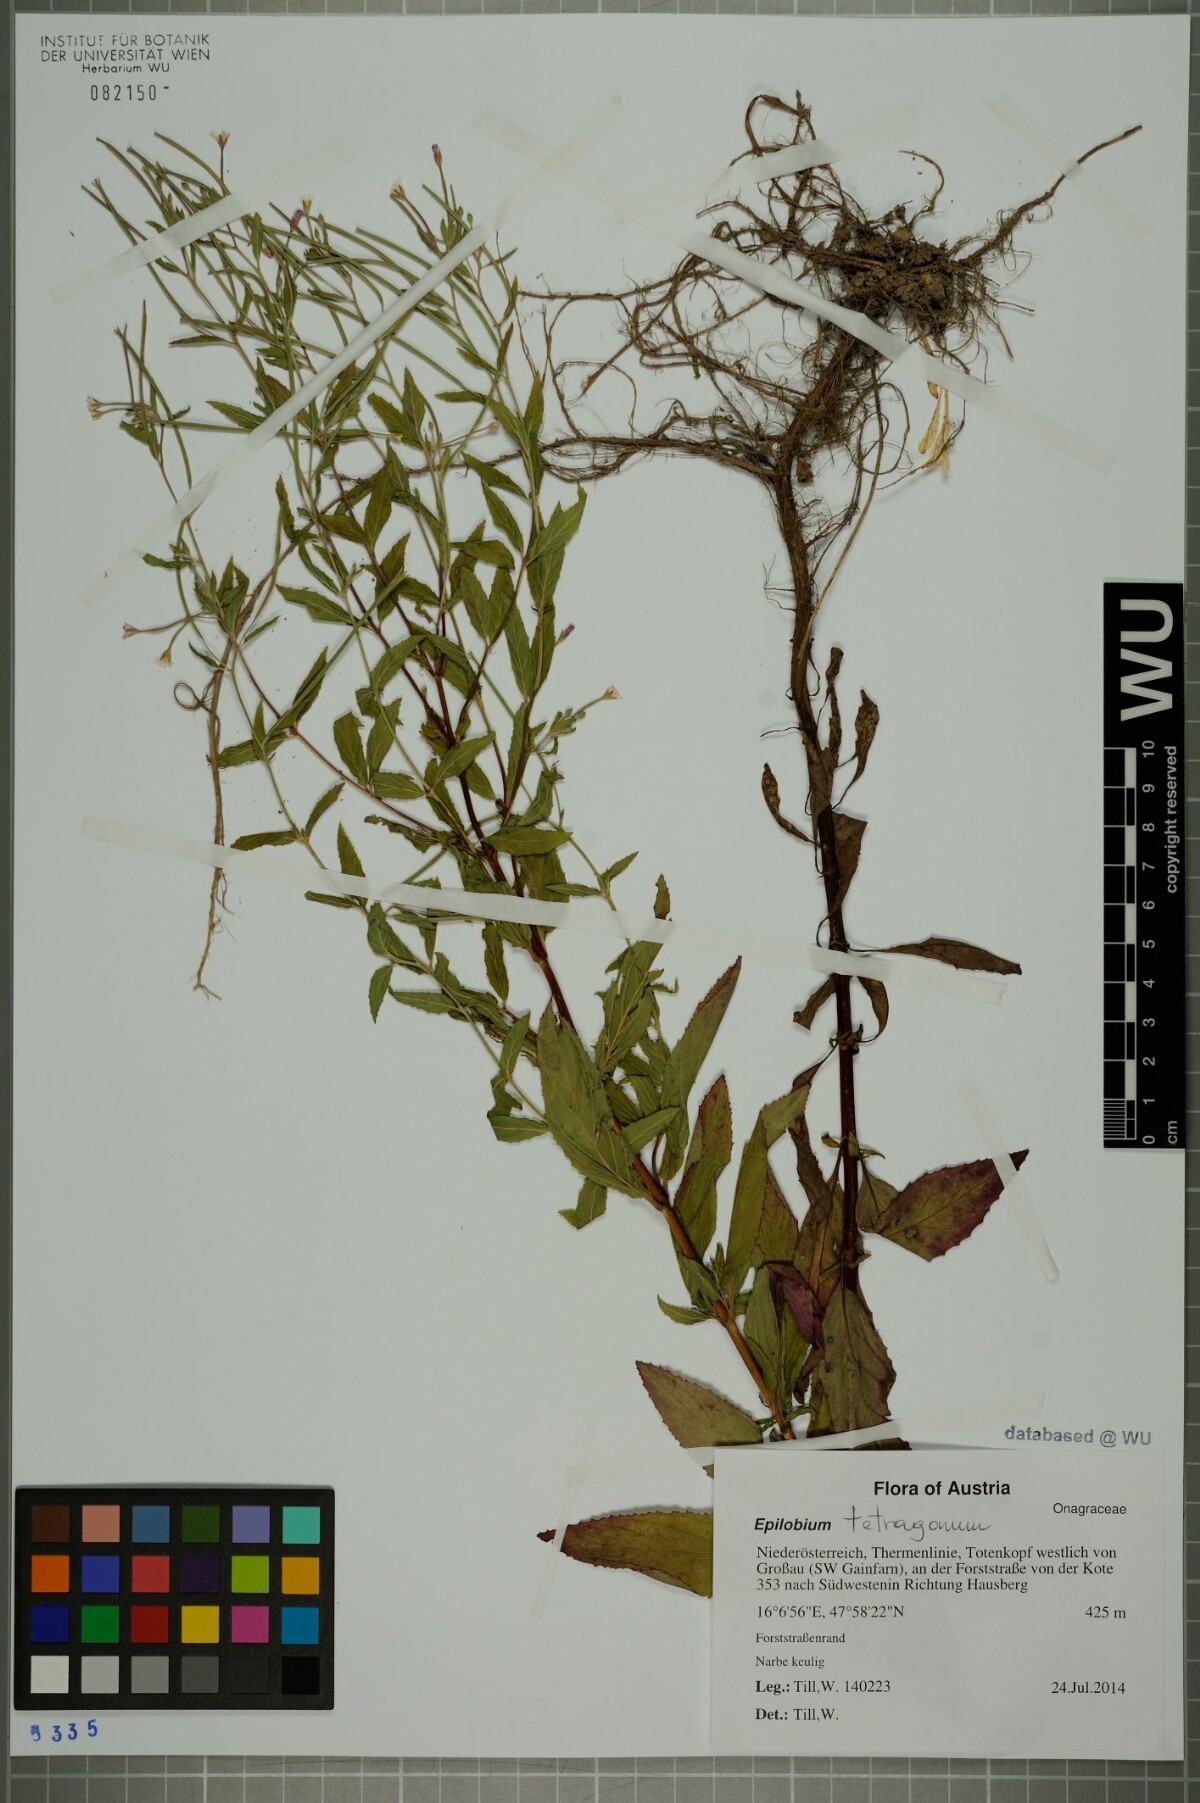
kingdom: Plantae
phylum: Tracheophyta
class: Magnoliopsida
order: Myrtales
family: Onagraceae
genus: Epilobium
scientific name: Epilobium tetragonum
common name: Square-stemmed willowherb
